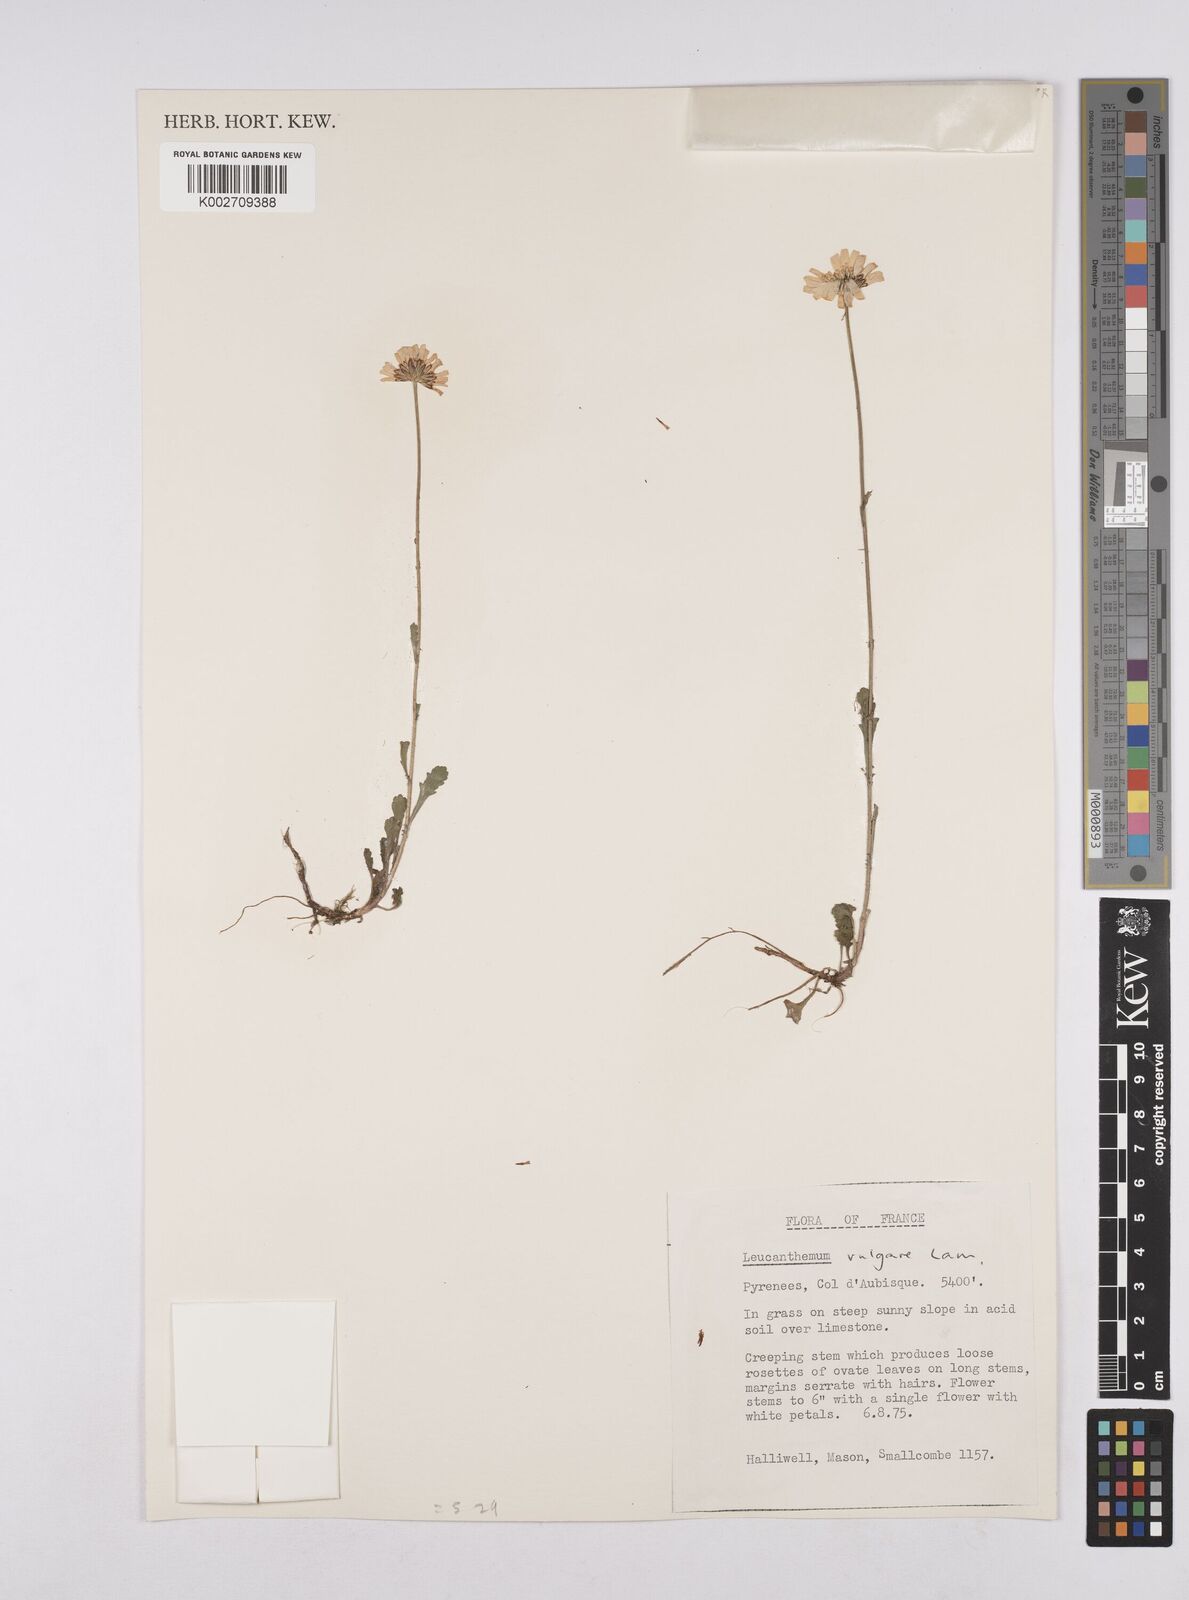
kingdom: Plantae
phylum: Tracheophyta
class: Magnoliopsida
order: Asterales
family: Asteraceae
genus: Leucanthemum
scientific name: Leucanthemum vulgare
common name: Oxeye daisy
